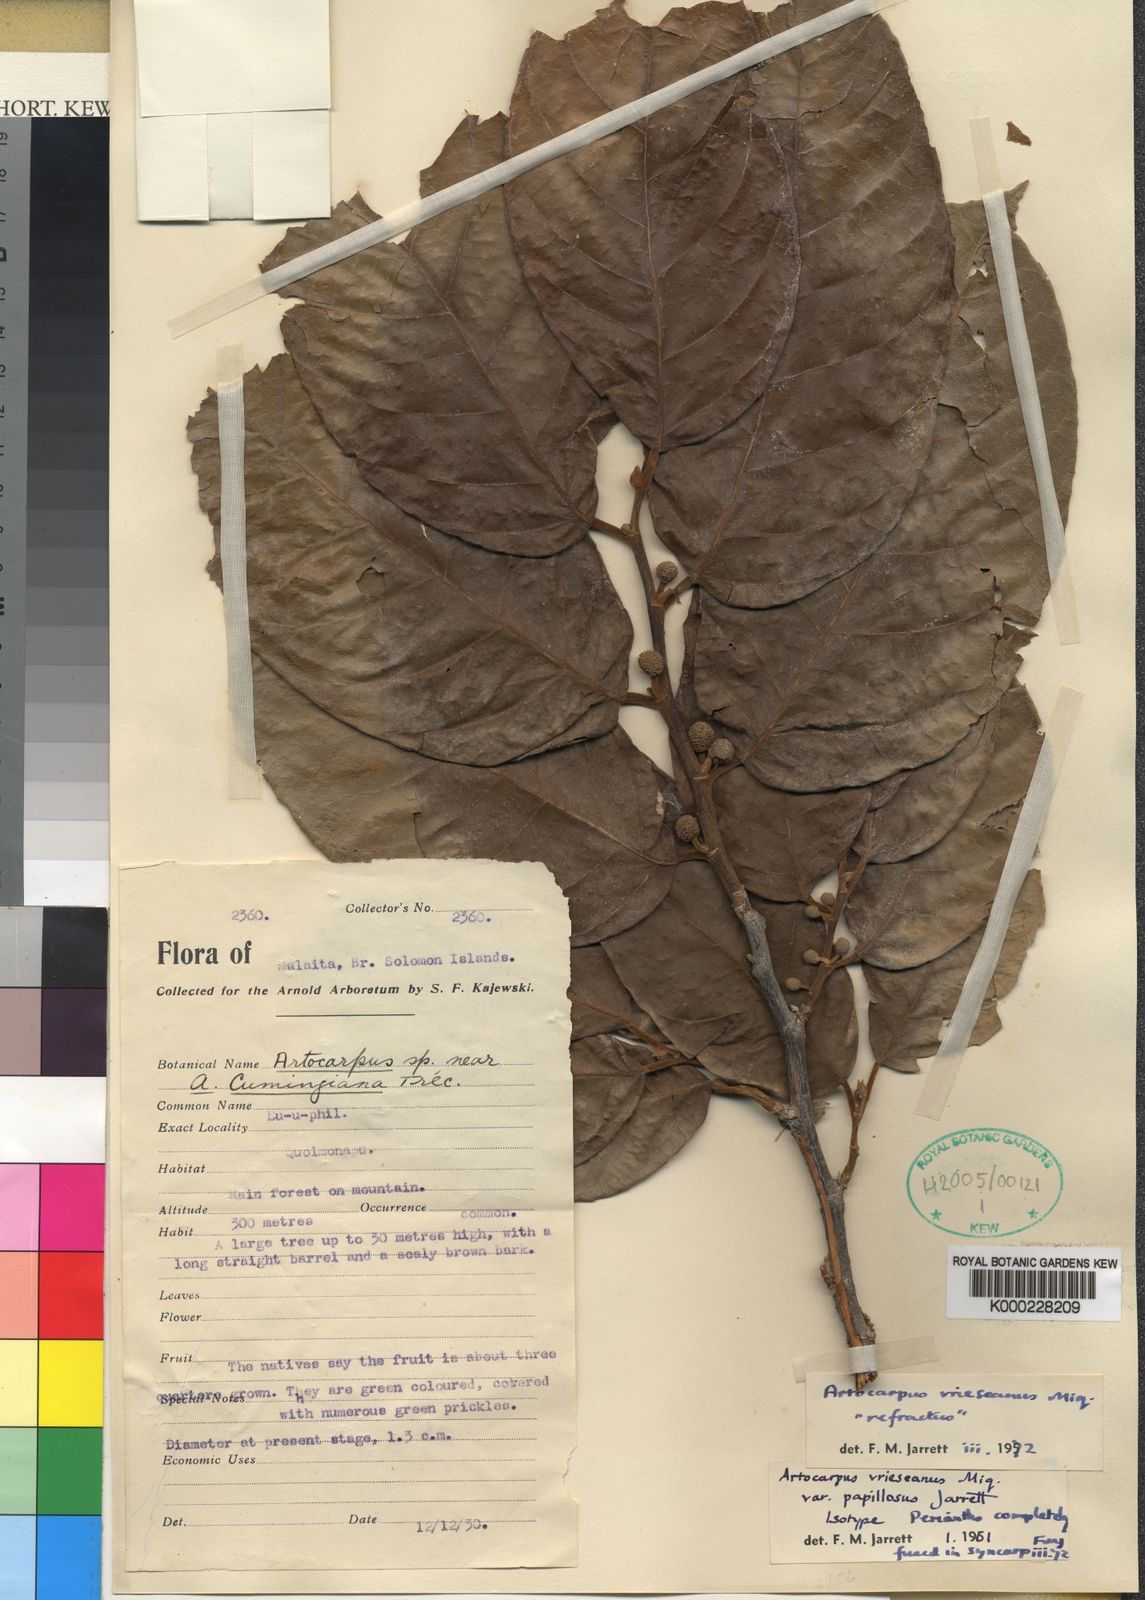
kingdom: Plantae
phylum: Tracheophyta
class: Magnoliopsida
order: Rosales
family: Moraceae
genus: Artocarpus
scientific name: Artocarpus lacucha
